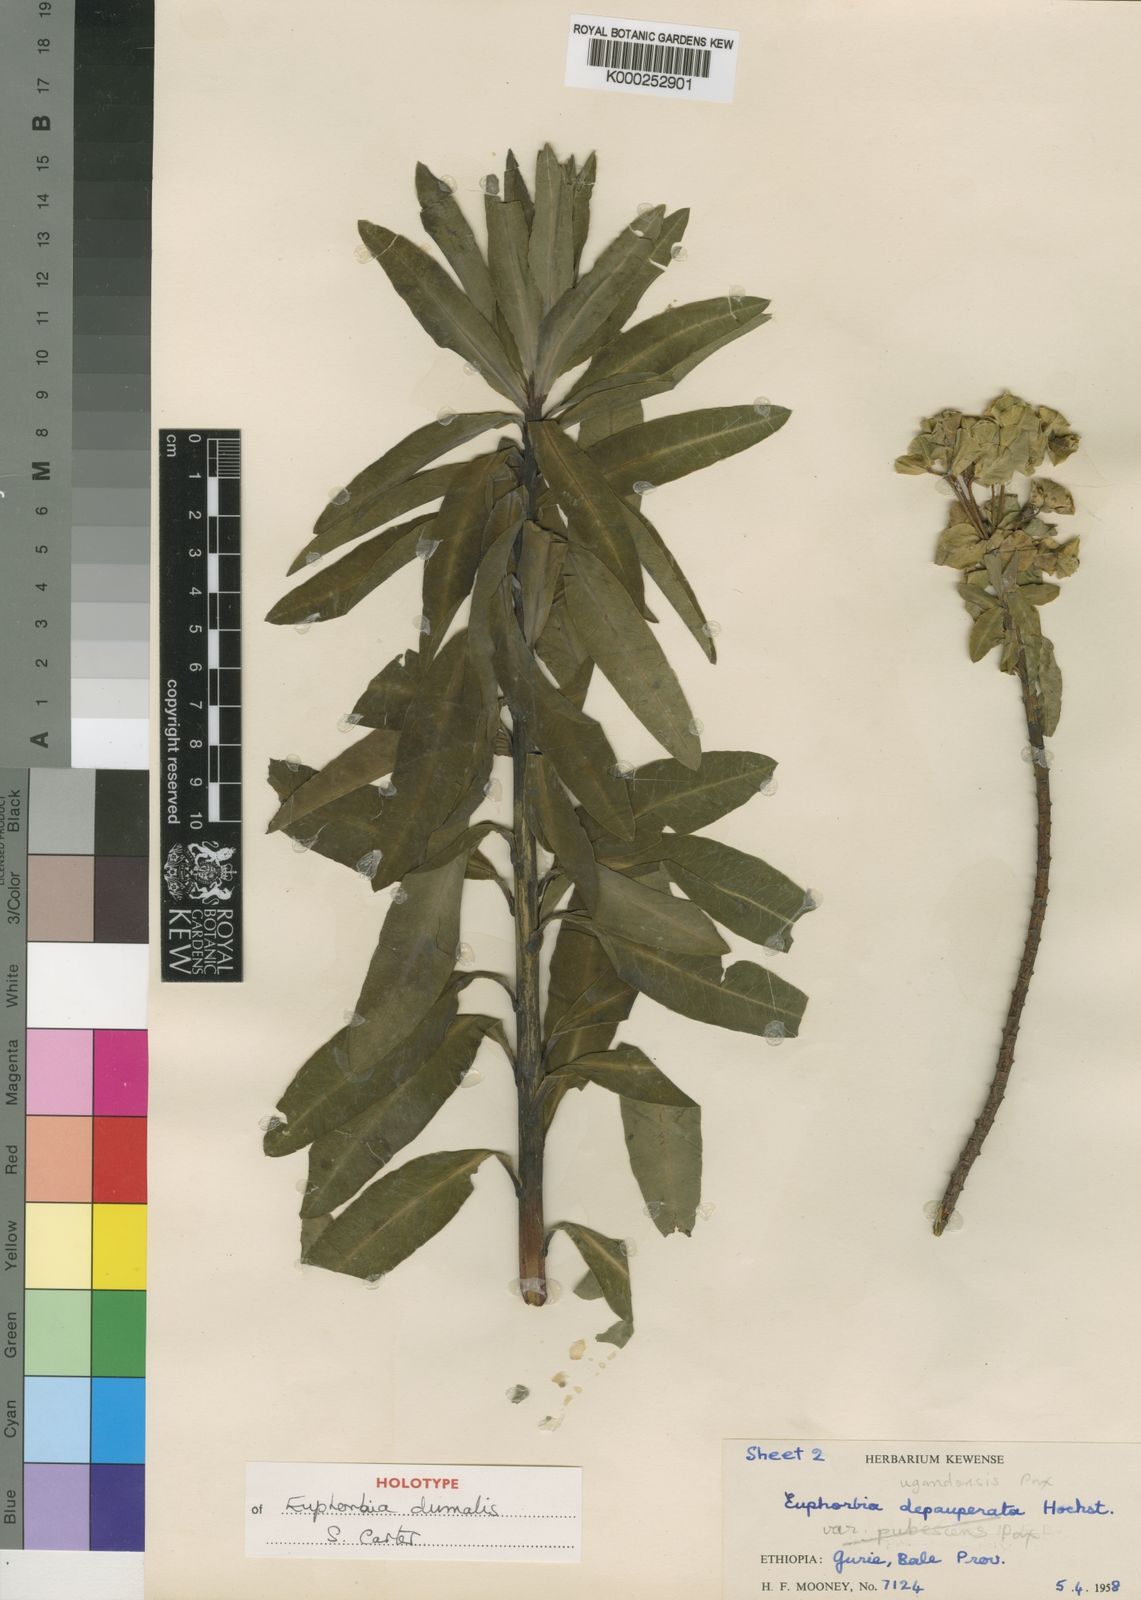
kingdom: Plantae
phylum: Tracheophyta
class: Magnoliopsida
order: Malpighiales
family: Euphorbiaceae
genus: Euphorbia
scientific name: Euphorbia dumalis
